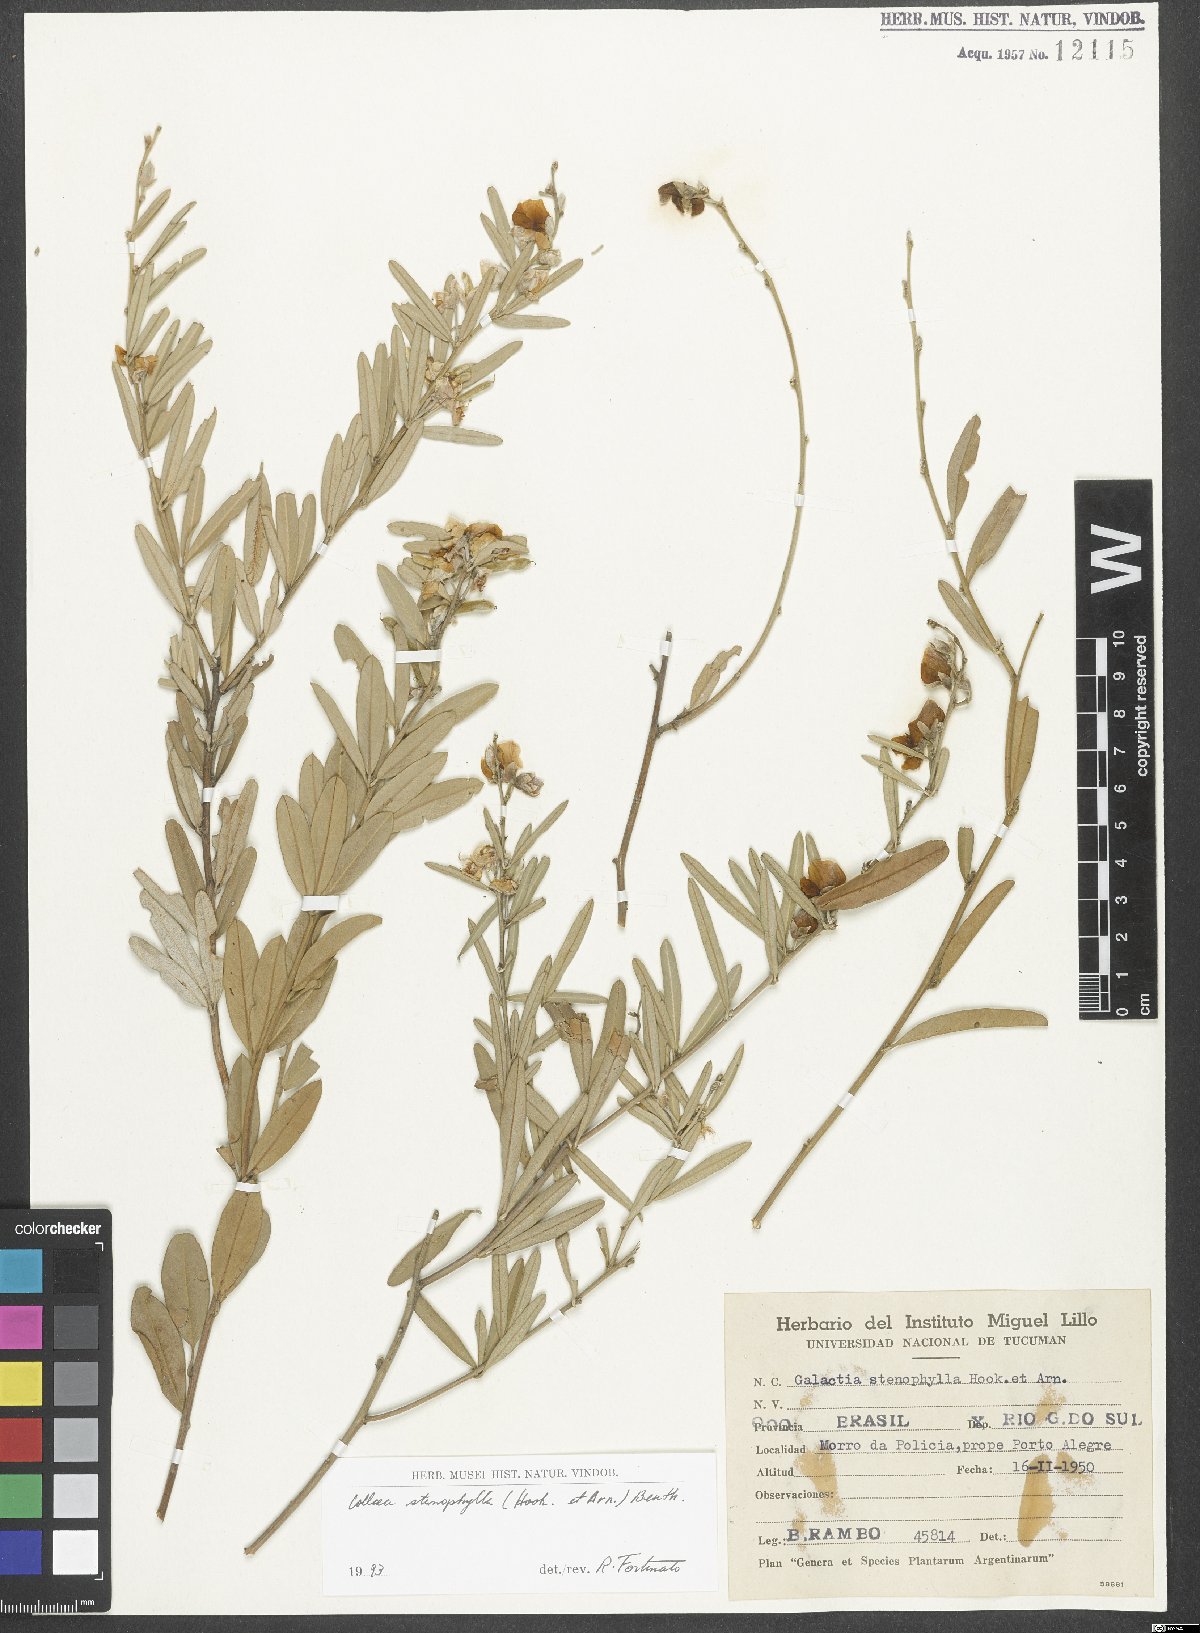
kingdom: Plantae
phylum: Tracheophyta
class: Magnoliopsida
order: Fabales
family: Fabaceae
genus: Collaea
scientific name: Collaea stenophylla
